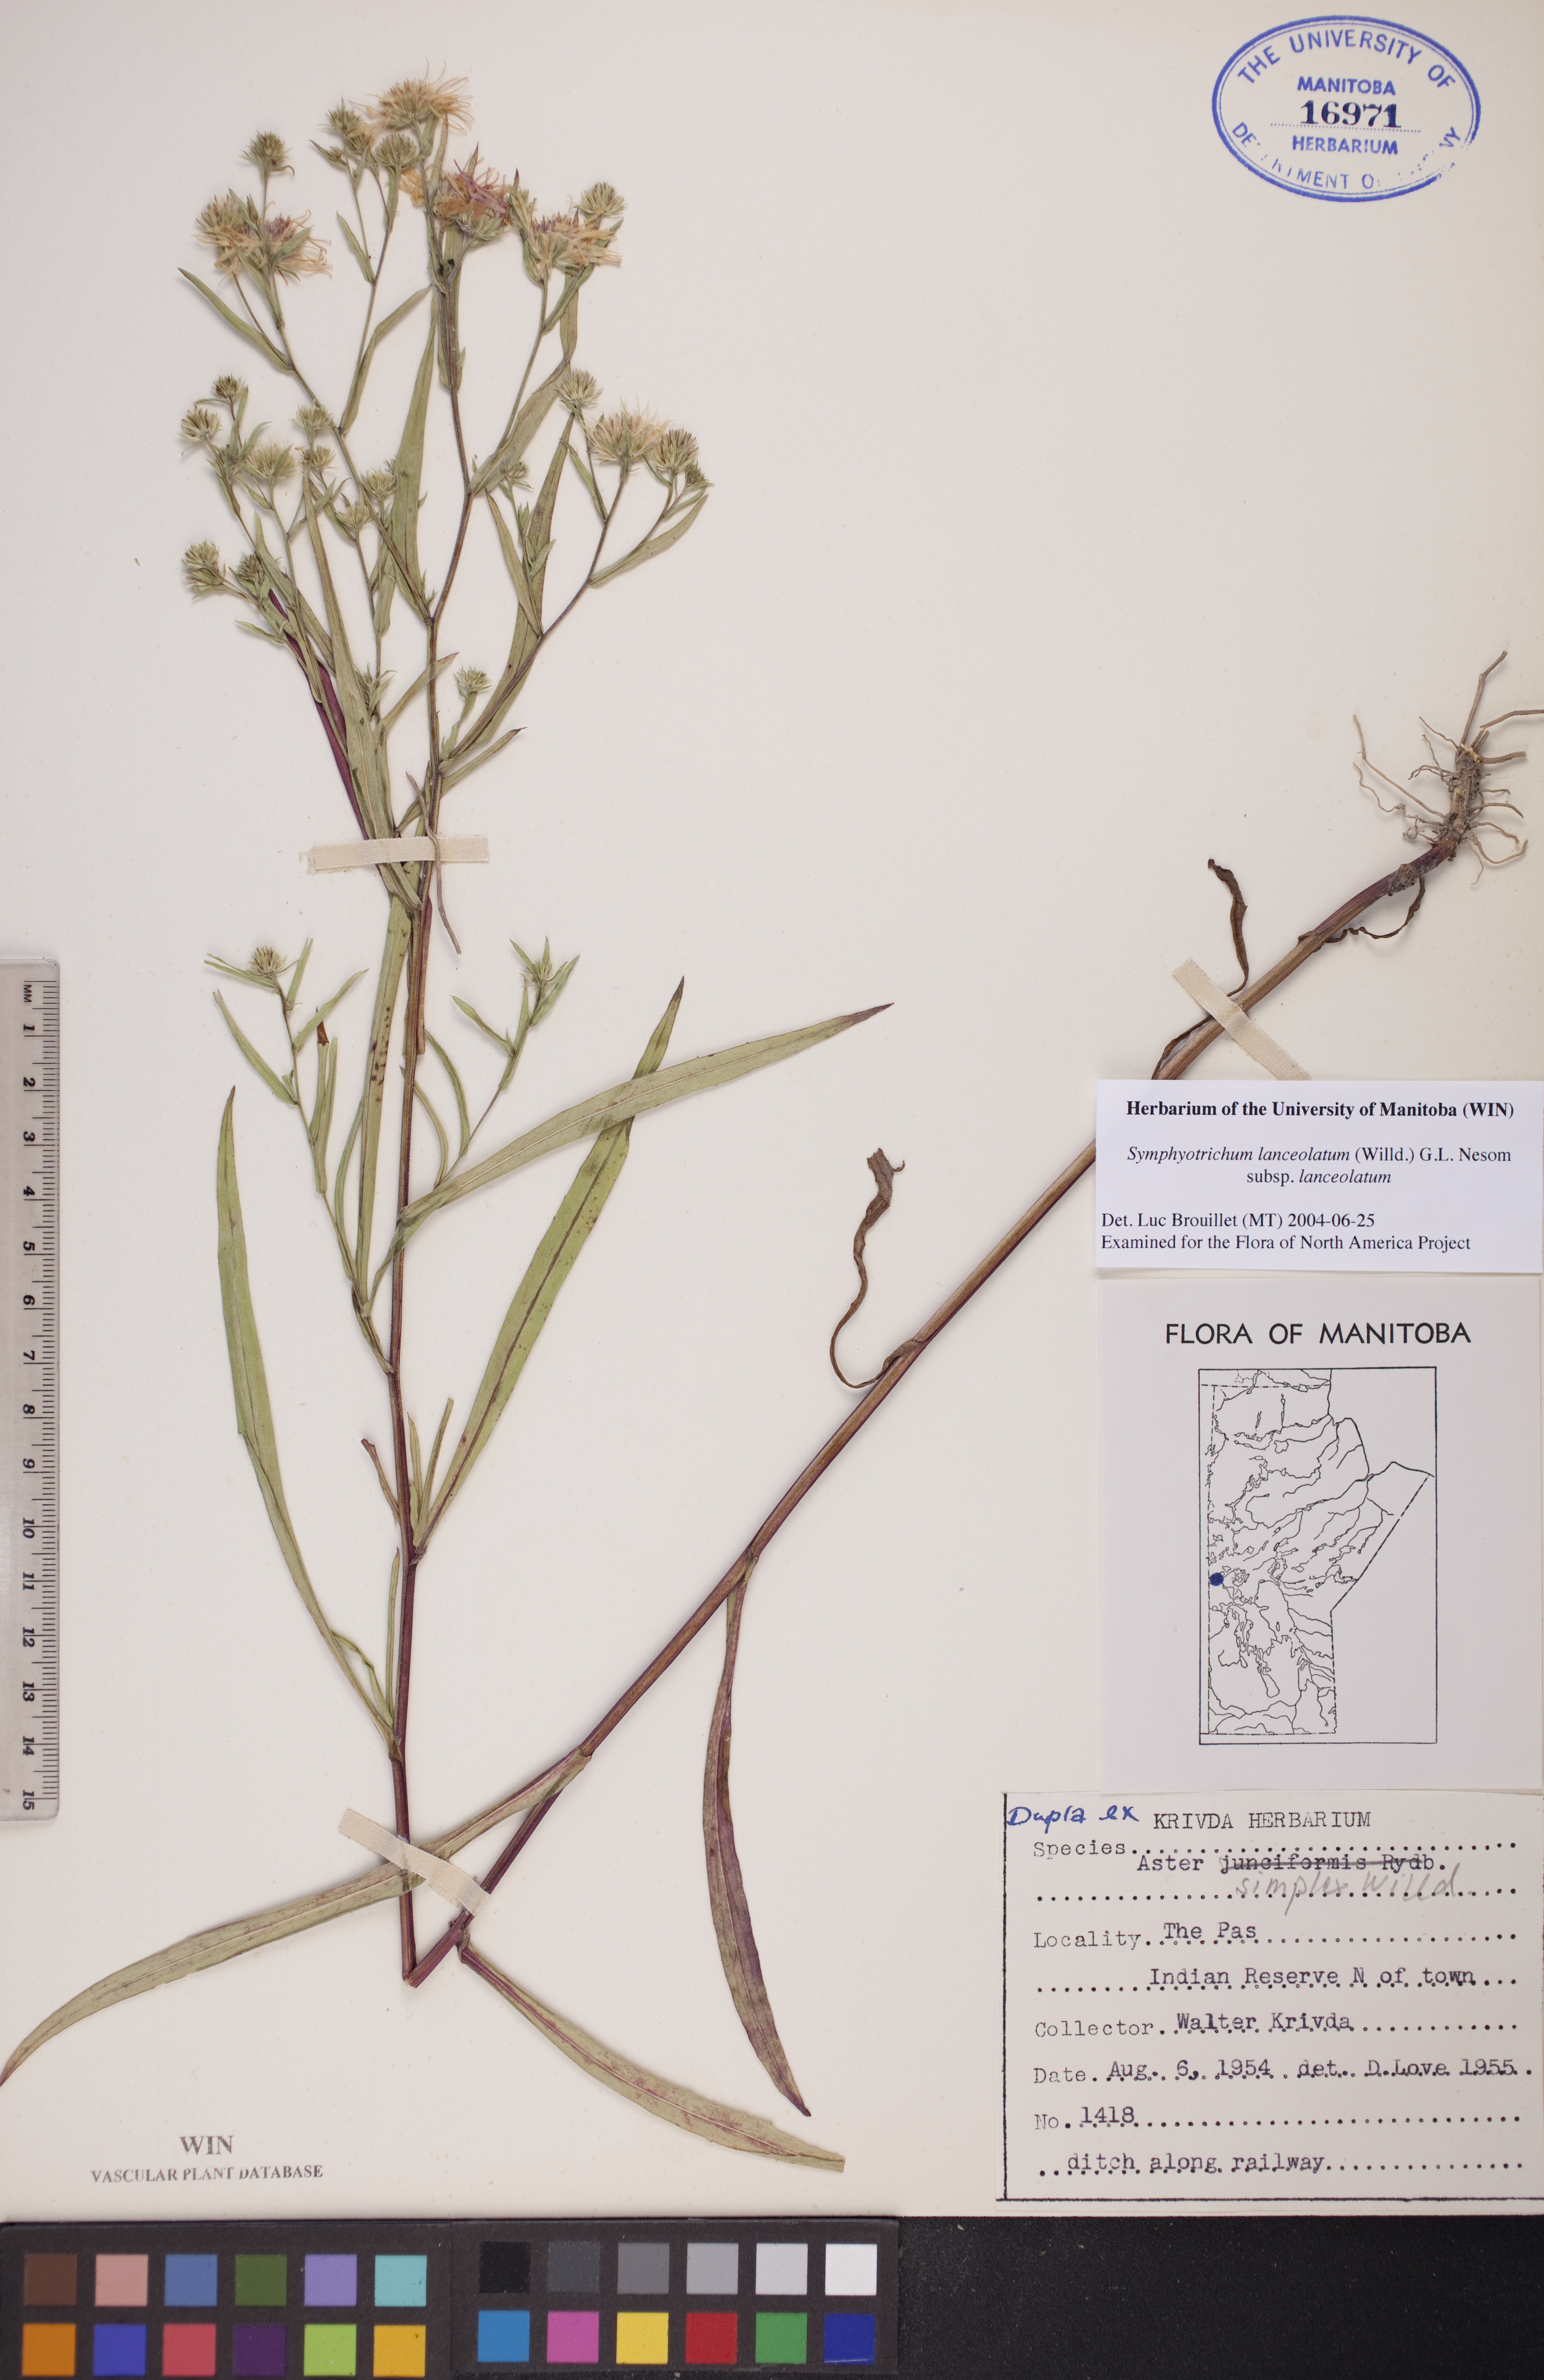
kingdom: Plantae
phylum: Tracheophyta
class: Magnoliopsida
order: Asterales
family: Asteraceae
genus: Symphyotrichum
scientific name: Symphyotrichum lanceolatum
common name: Panicled aster
